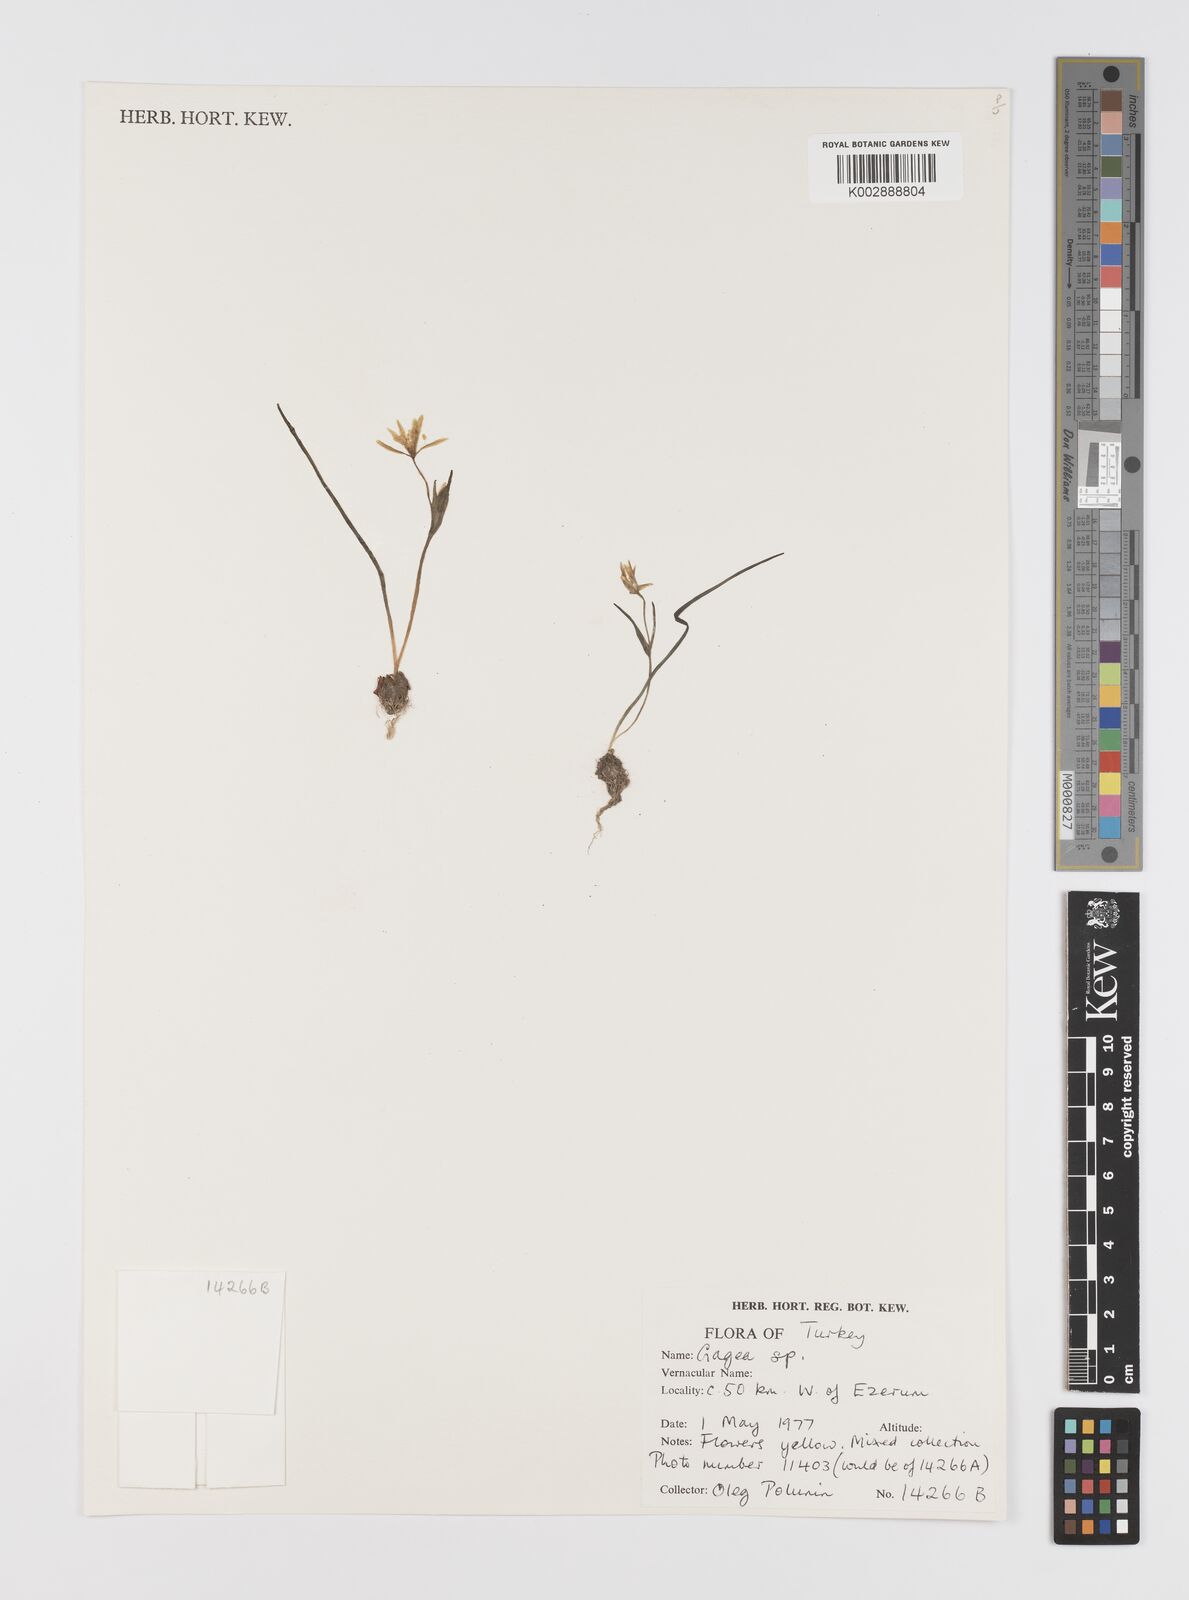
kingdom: Plantae
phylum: Tracheophyta
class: Liliopsida
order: Liliales
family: Liliaceae
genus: Gagea
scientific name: Gagea
